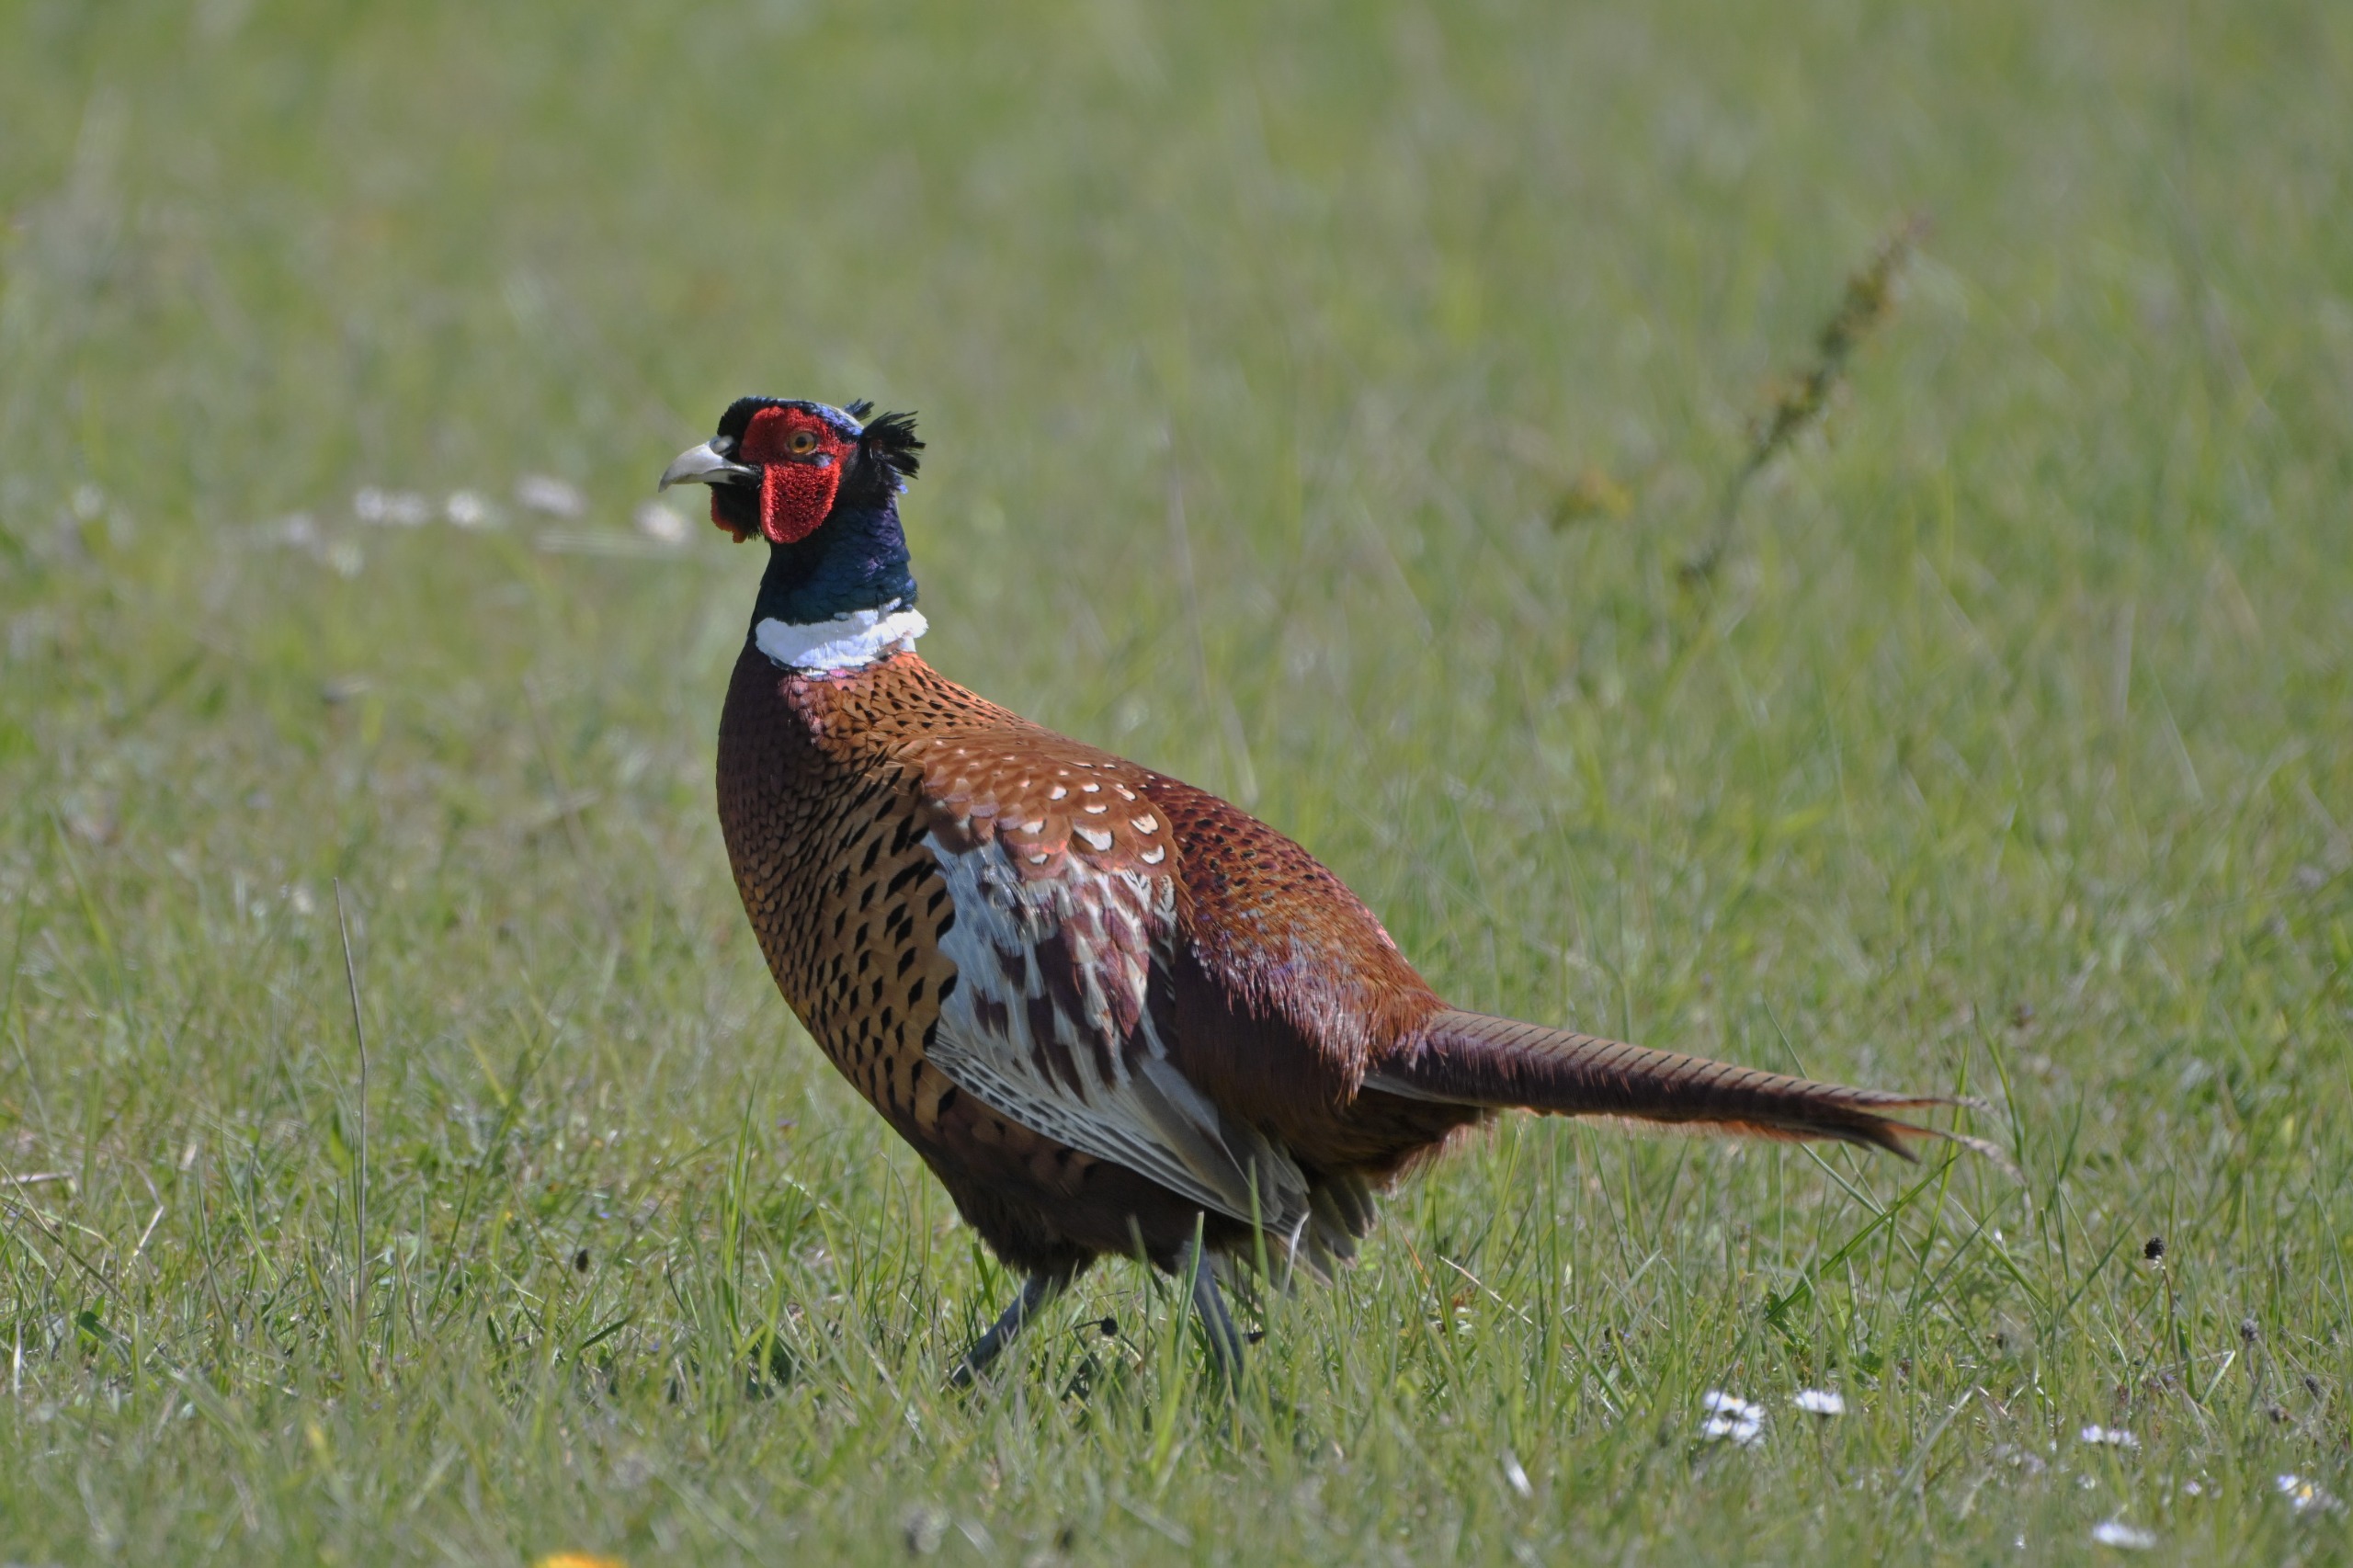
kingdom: Animalia
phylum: Chordata
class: Aves
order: Galliformes
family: Phasianidae
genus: Phasianus
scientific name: Phasianus colchicus
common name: Fasan
